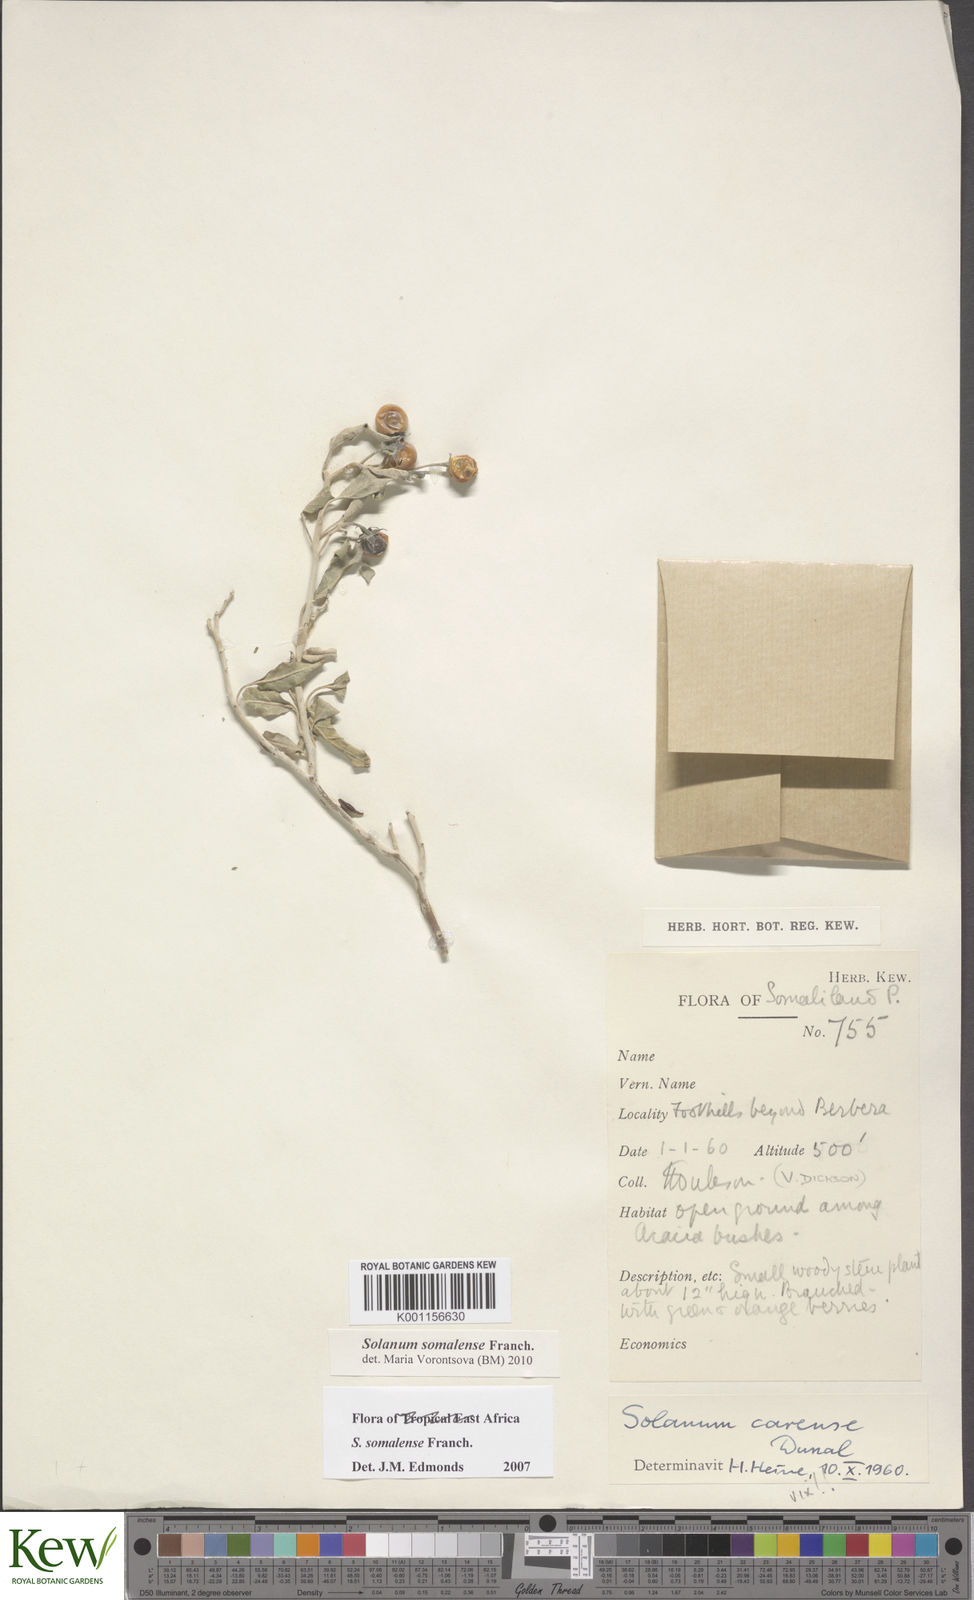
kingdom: Plantae
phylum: Tracheophyta
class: Magnoliopsida
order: Solanales
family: Solanaceae
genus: Solanum
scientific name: Solanum somalense
